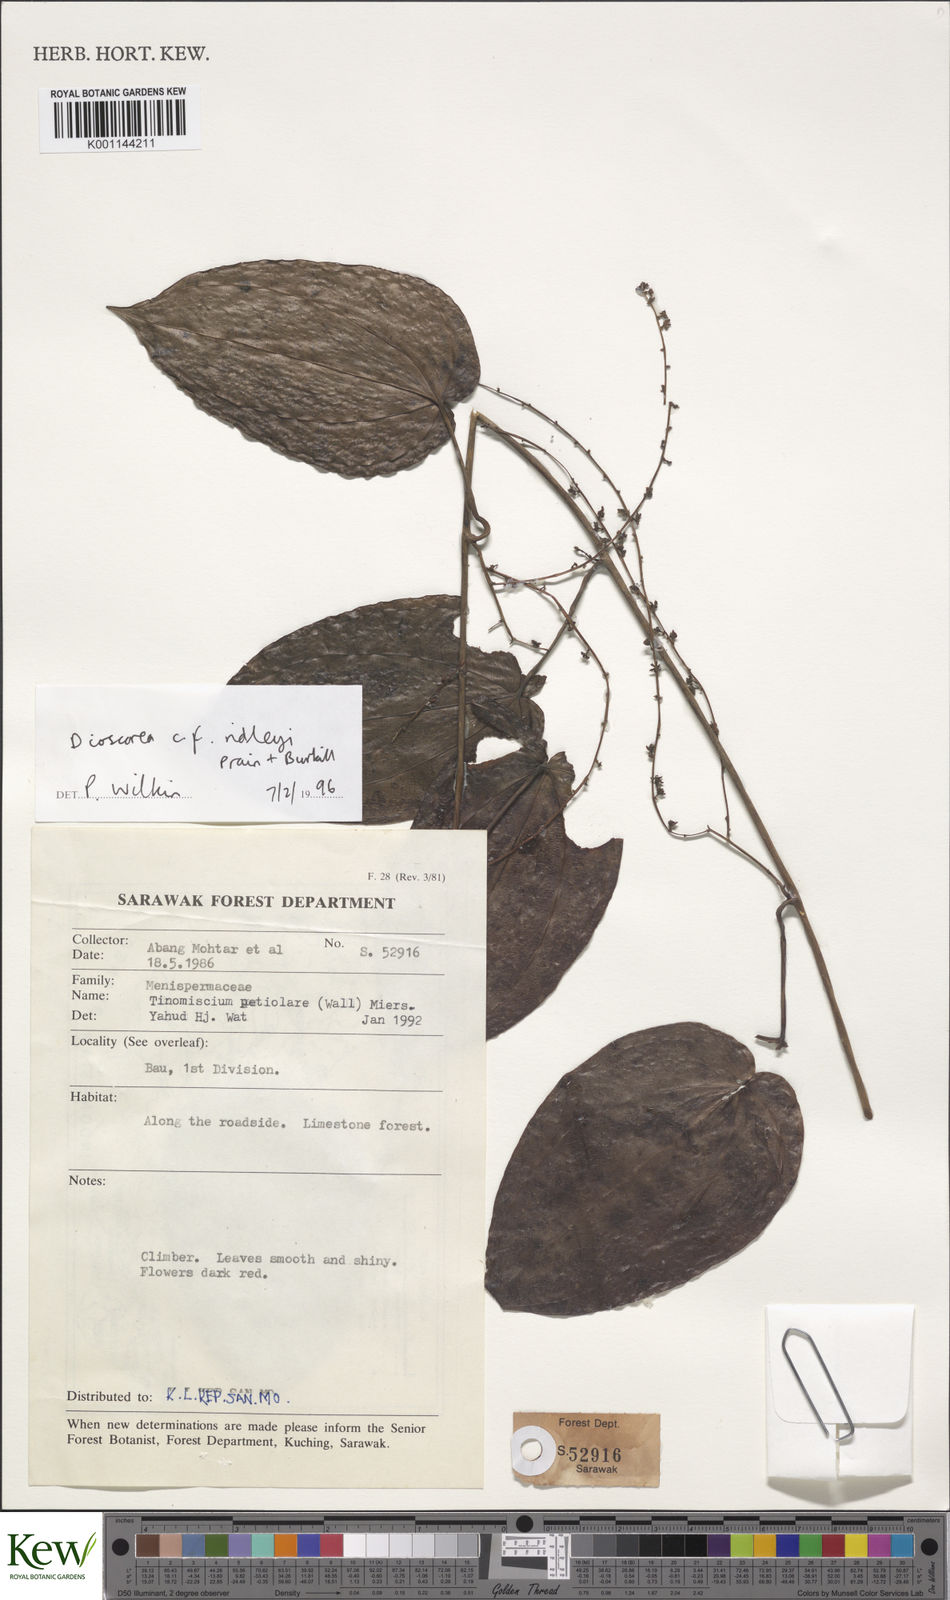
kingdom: Plantae
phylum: Tracheophyta
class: Liliopsida
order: Dioscoreales
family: Dioscoreaceae
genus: Dioscorea
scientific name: Dioscorea ridleyi
